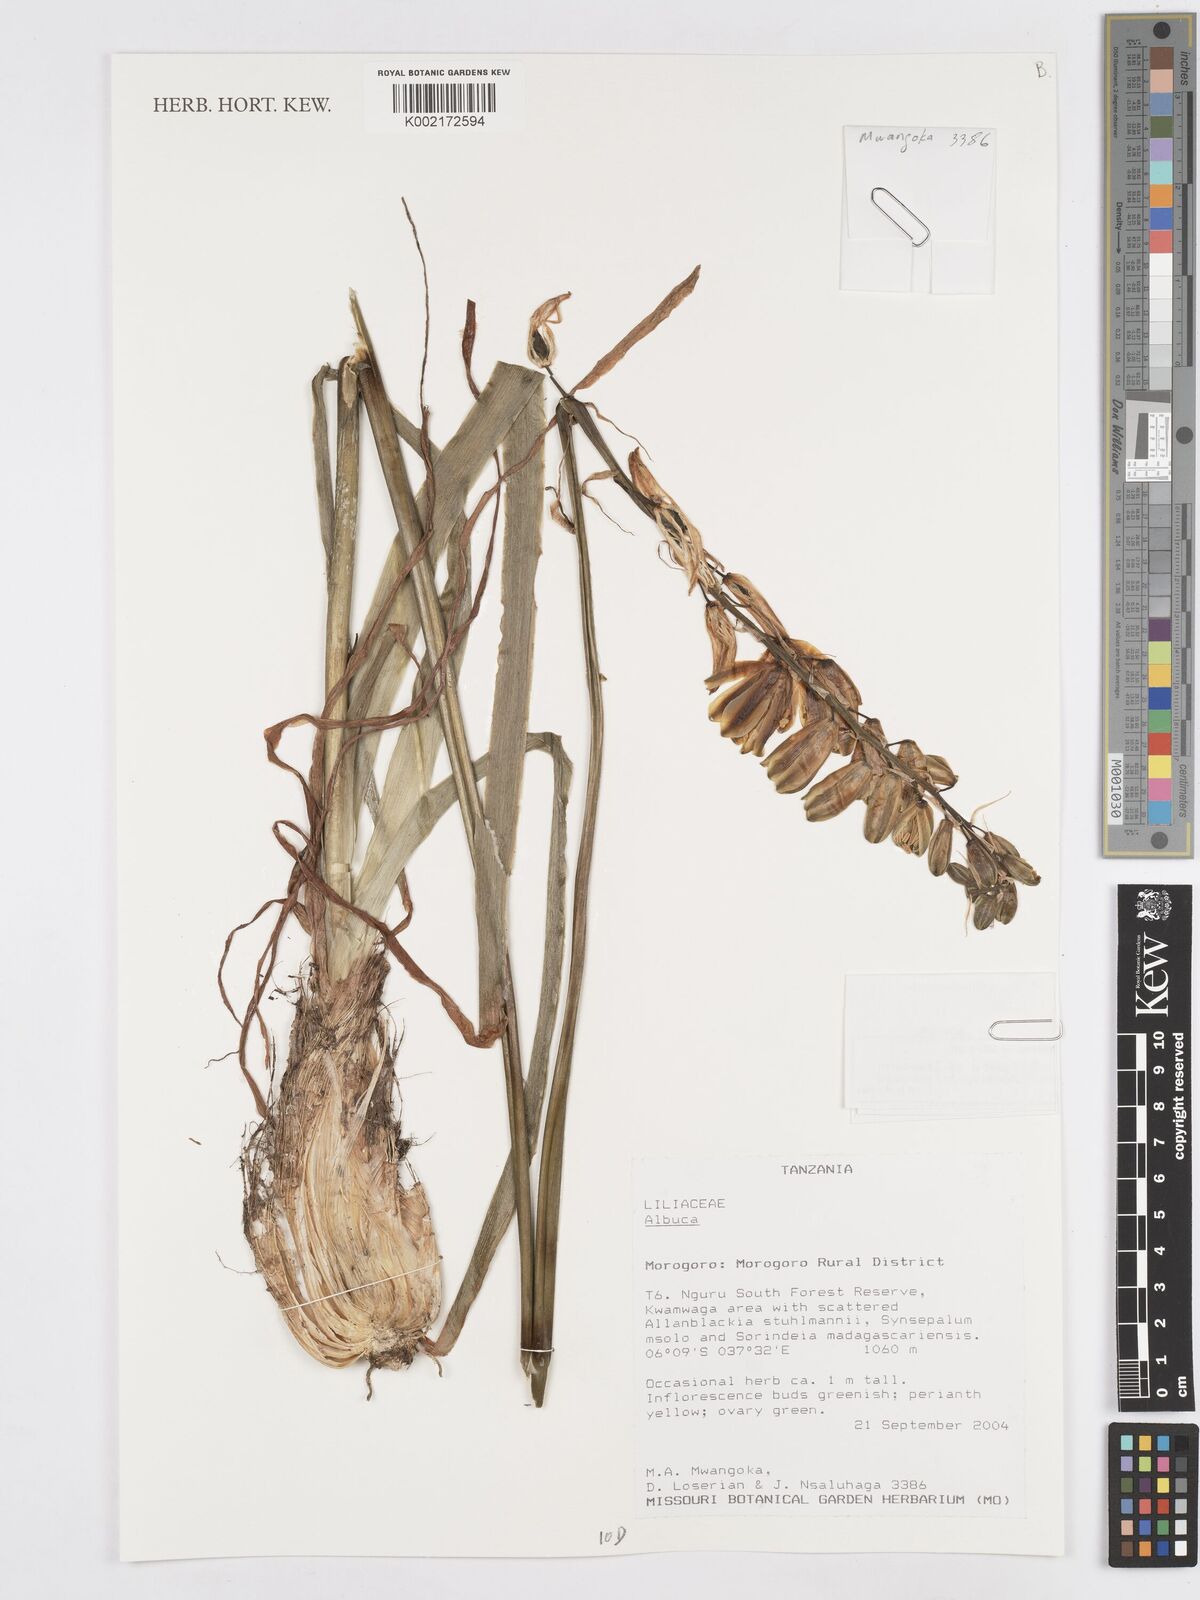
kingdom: Plantae
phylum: Tracheophyta
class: Liliopsida
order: Asparagales
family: Asparagaceae
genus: Albuca
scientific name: Albuca
